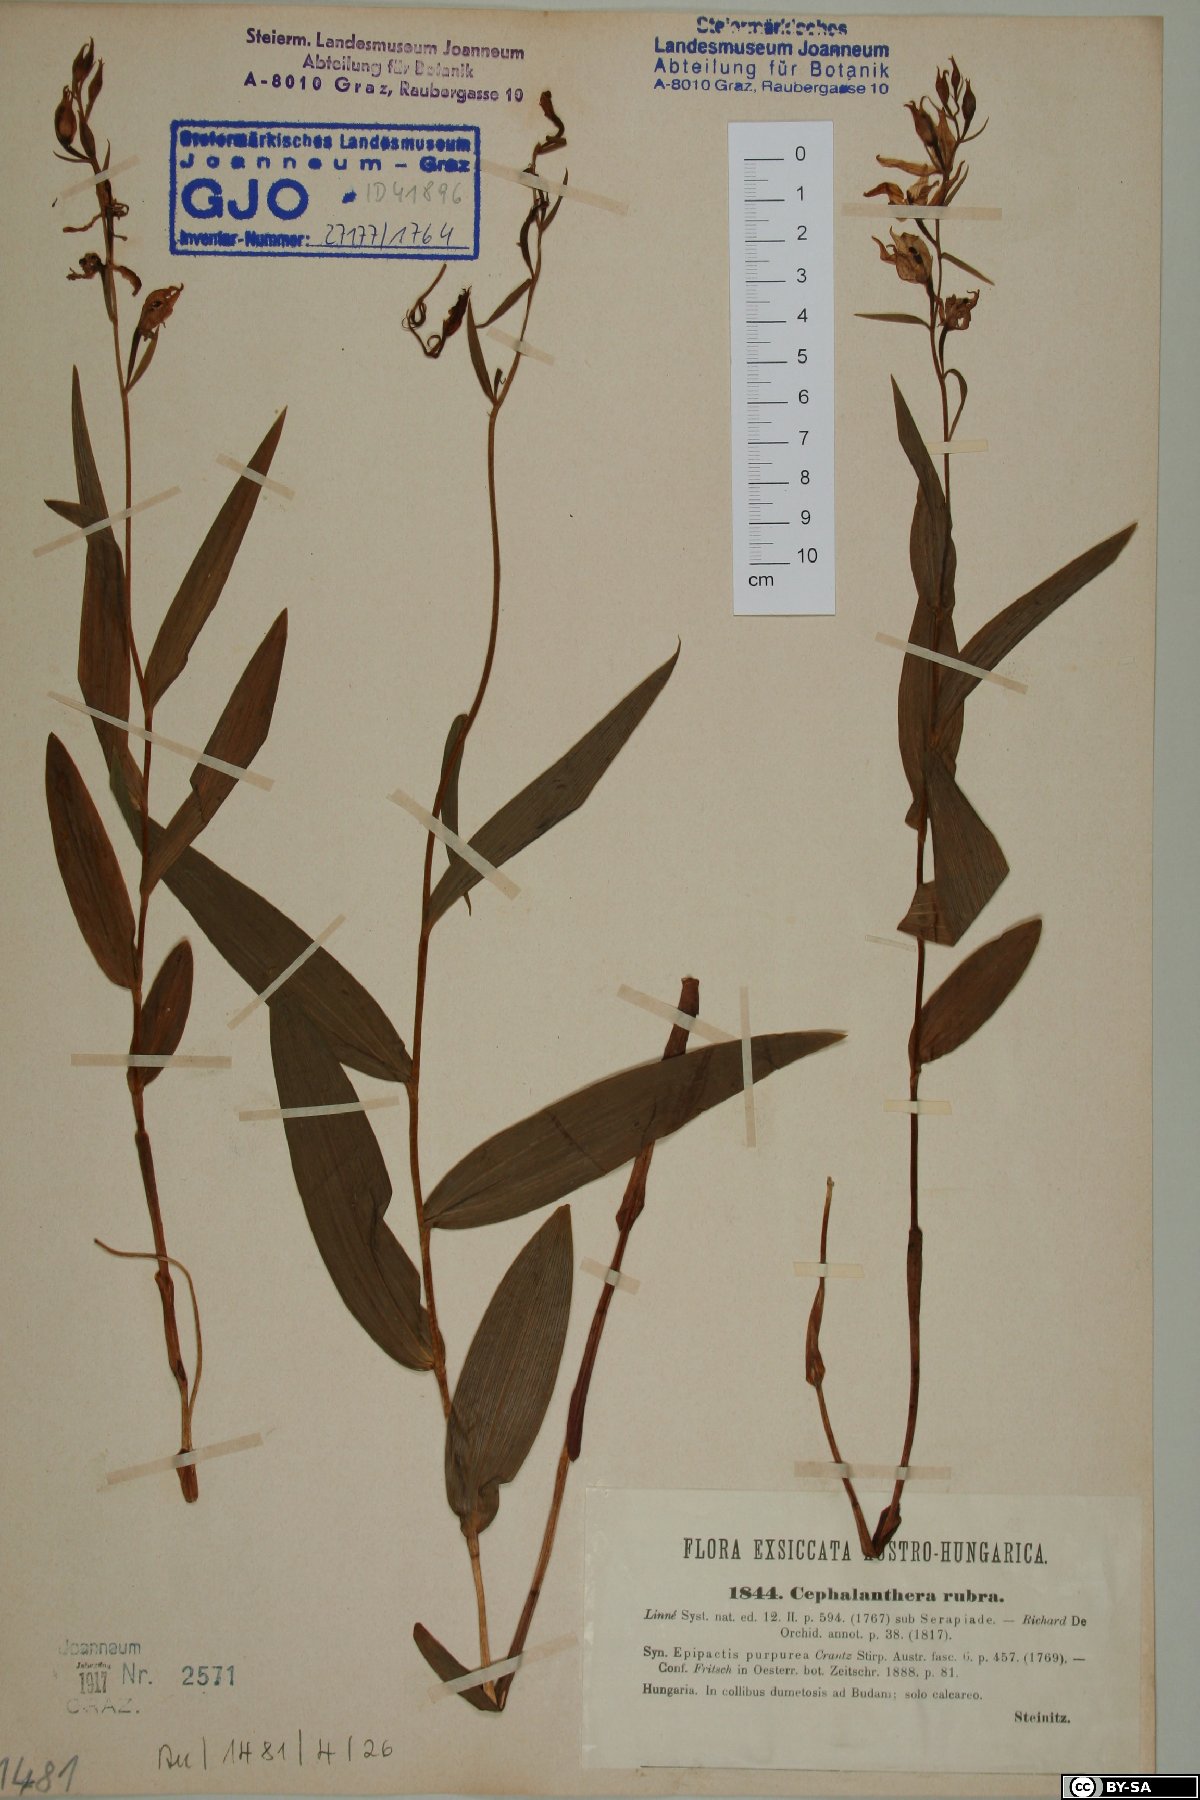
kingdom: Plantae
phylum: Tracheophyta
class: Liliopsida
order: Asparagales
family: Orchidaceae
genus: Cephalanthera
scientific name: Cephalanthera rubra
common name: Red helleborine
